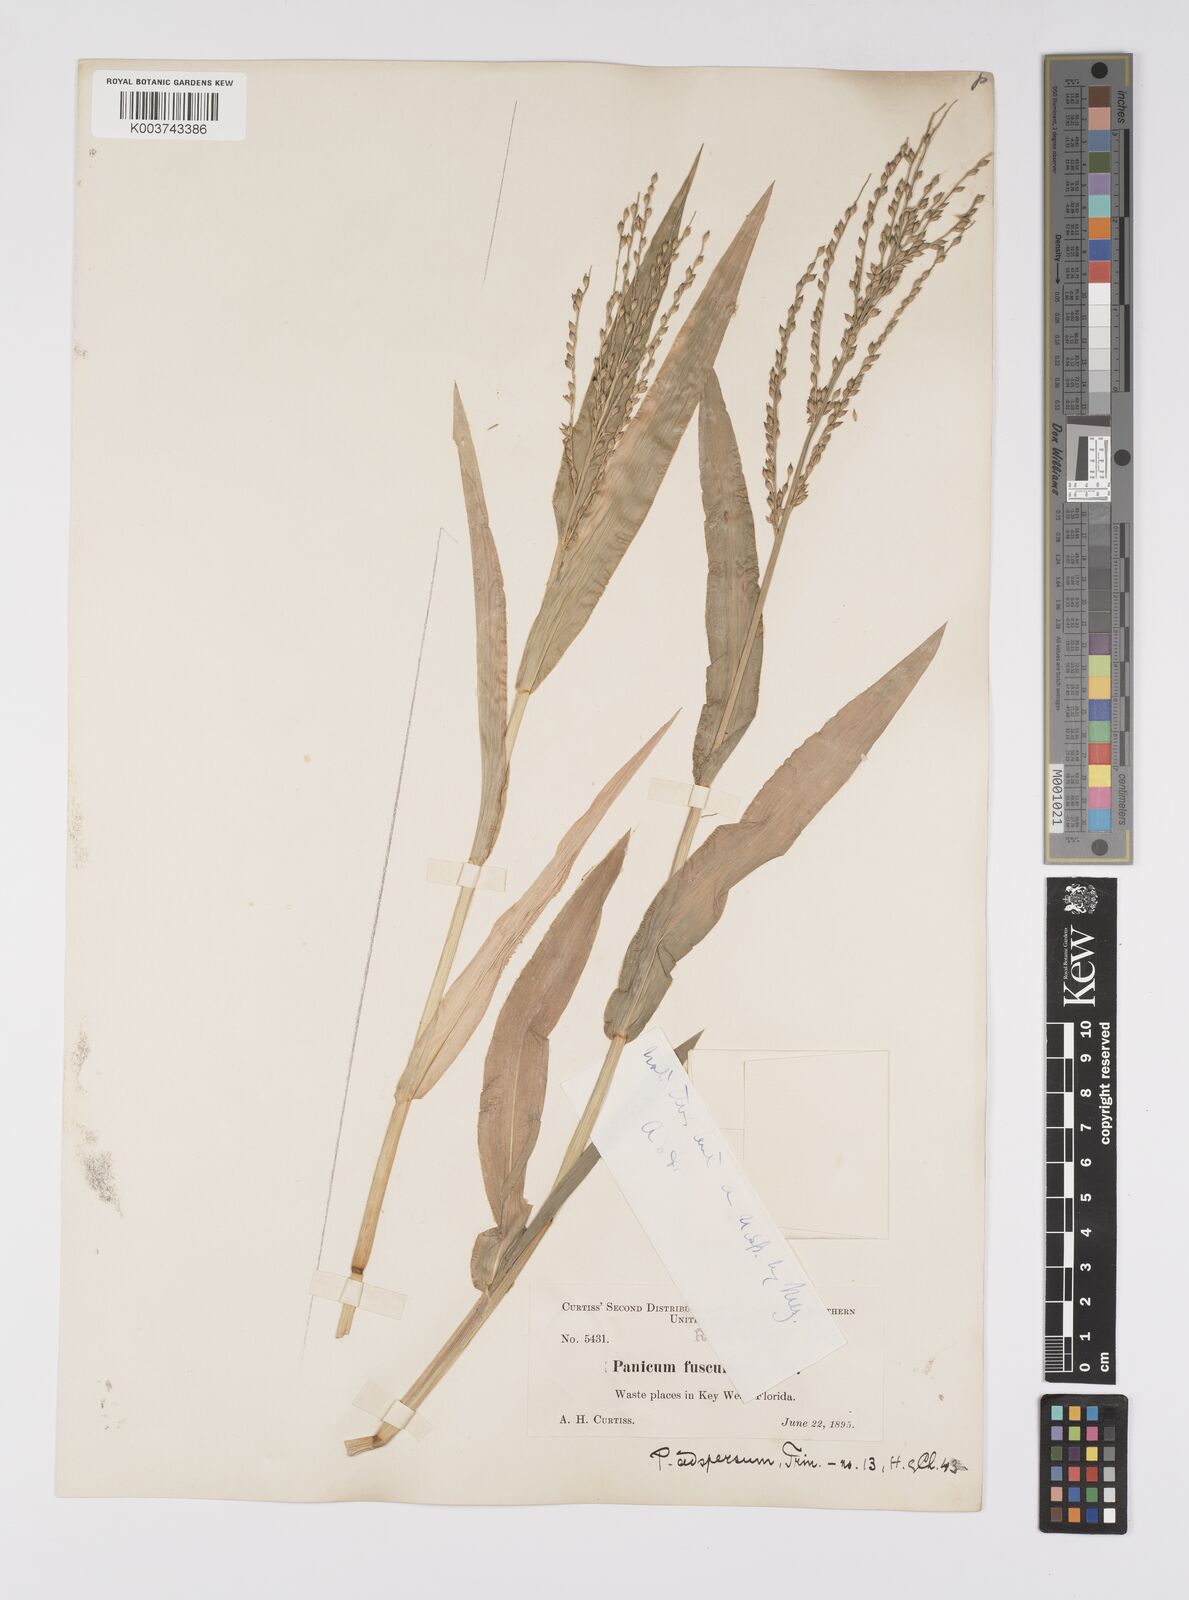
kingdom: Plantae
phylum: Tracheophyta
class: Liliopsida
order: Poales
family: Poaceae
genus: Urochloa
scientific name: Urochloa adspersa
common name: Dominican signal grass
